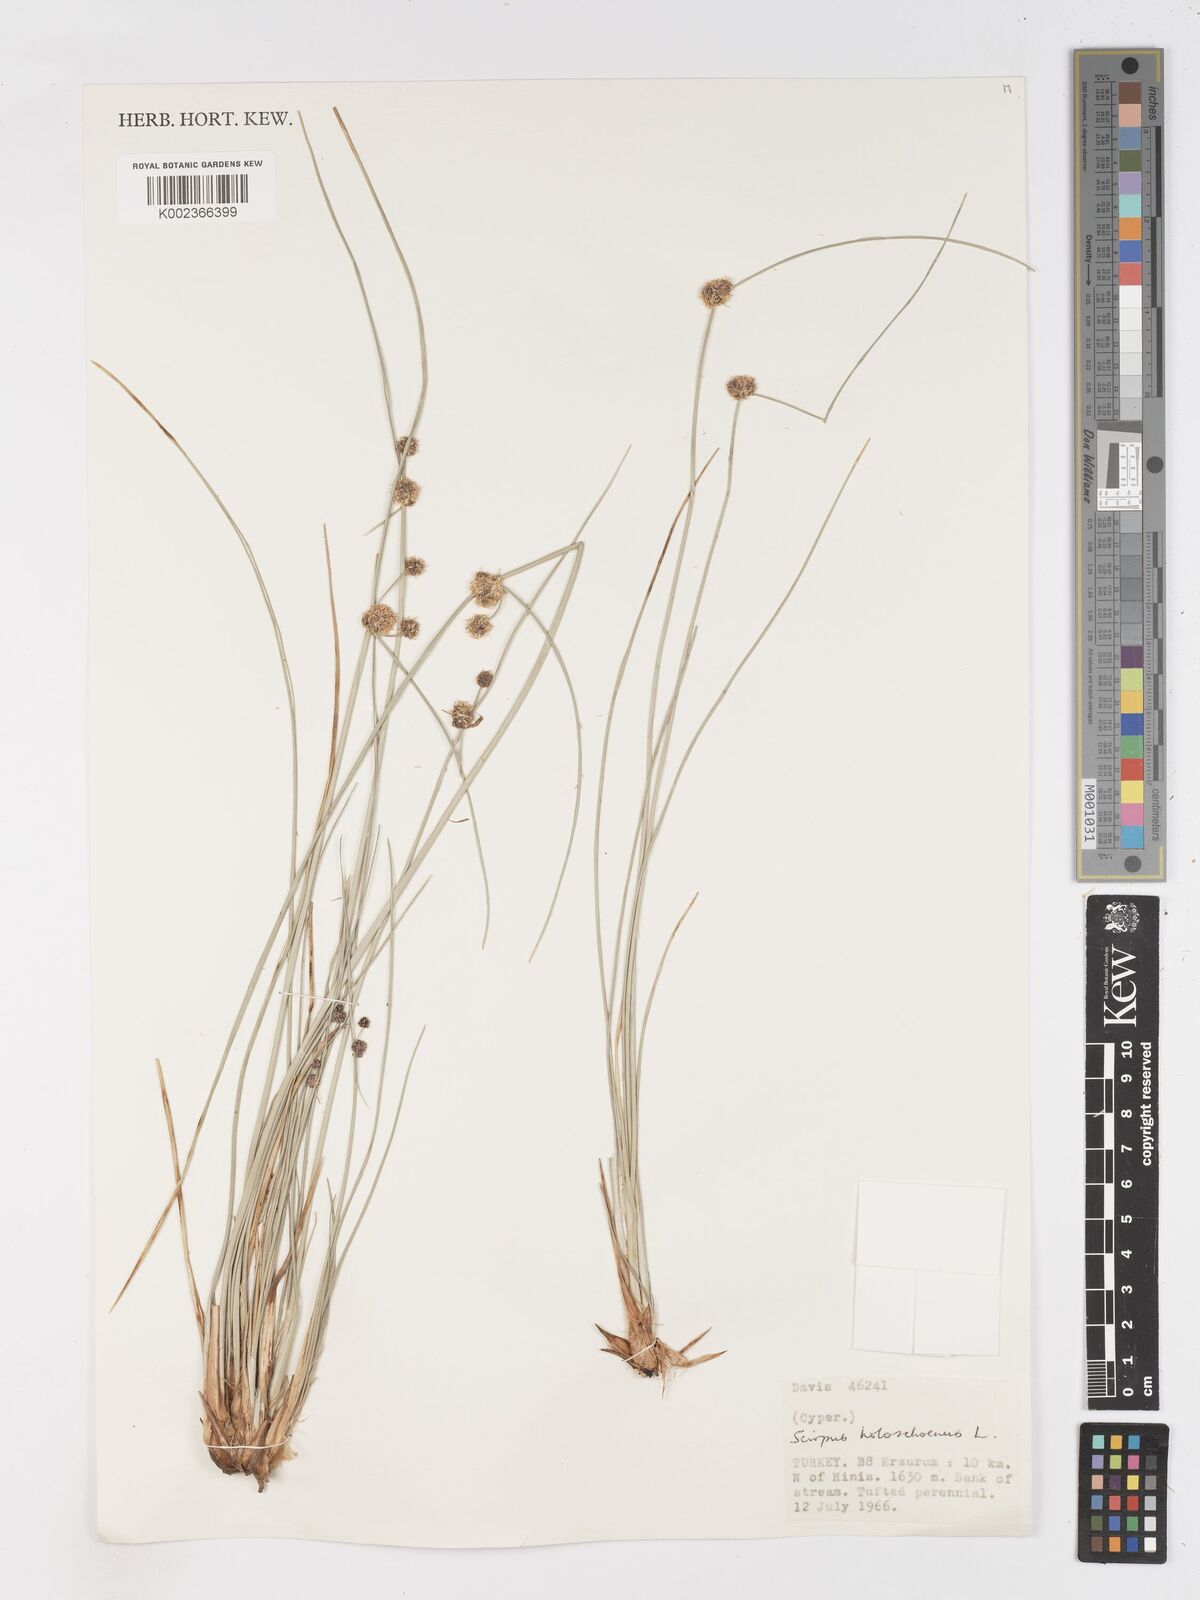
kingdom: Plantae
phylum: Tracheophyta
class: Liliopsida
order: Poales
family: Cyperaceae
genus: Scirpoides
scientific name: Scirpoides holoschoenus
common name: Round-headed club-rush
